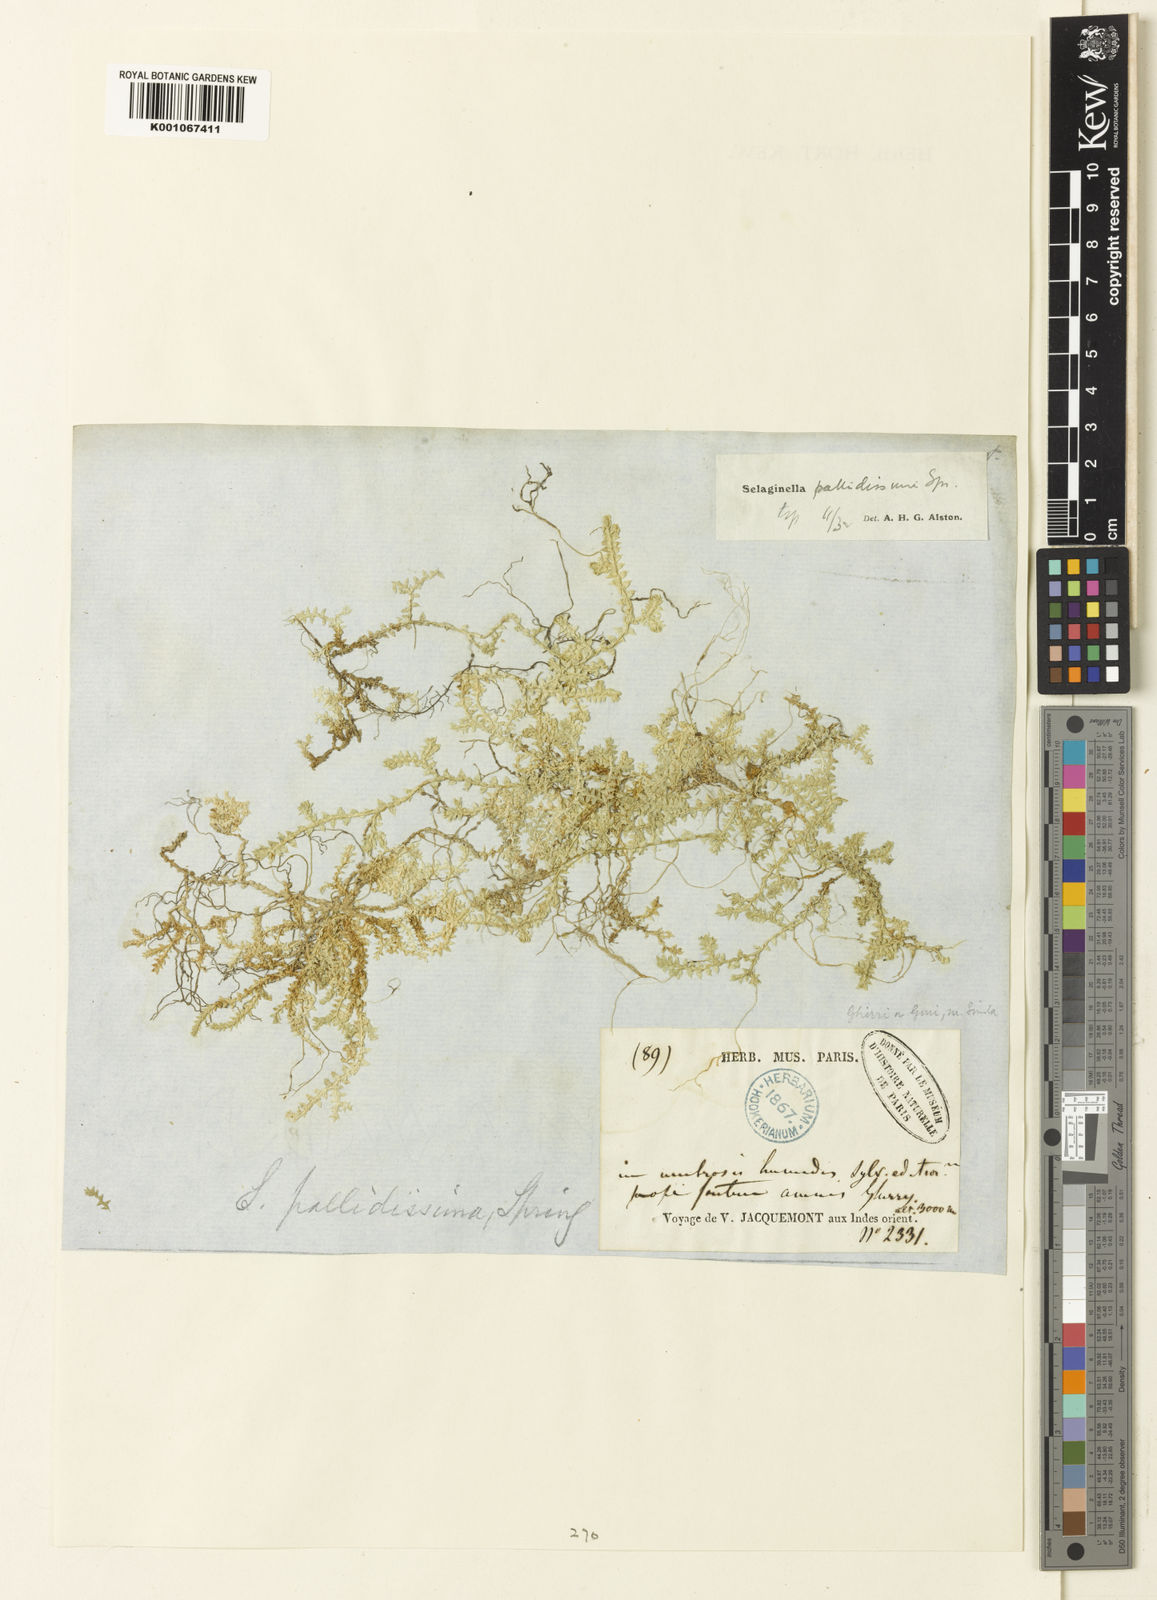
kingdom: Plantae
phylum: Tracheophyta
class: Lycopodiopsida
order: Selaginellales
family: Selaginellaceae
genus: Selaginella
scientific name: Selaginella pallidissima
